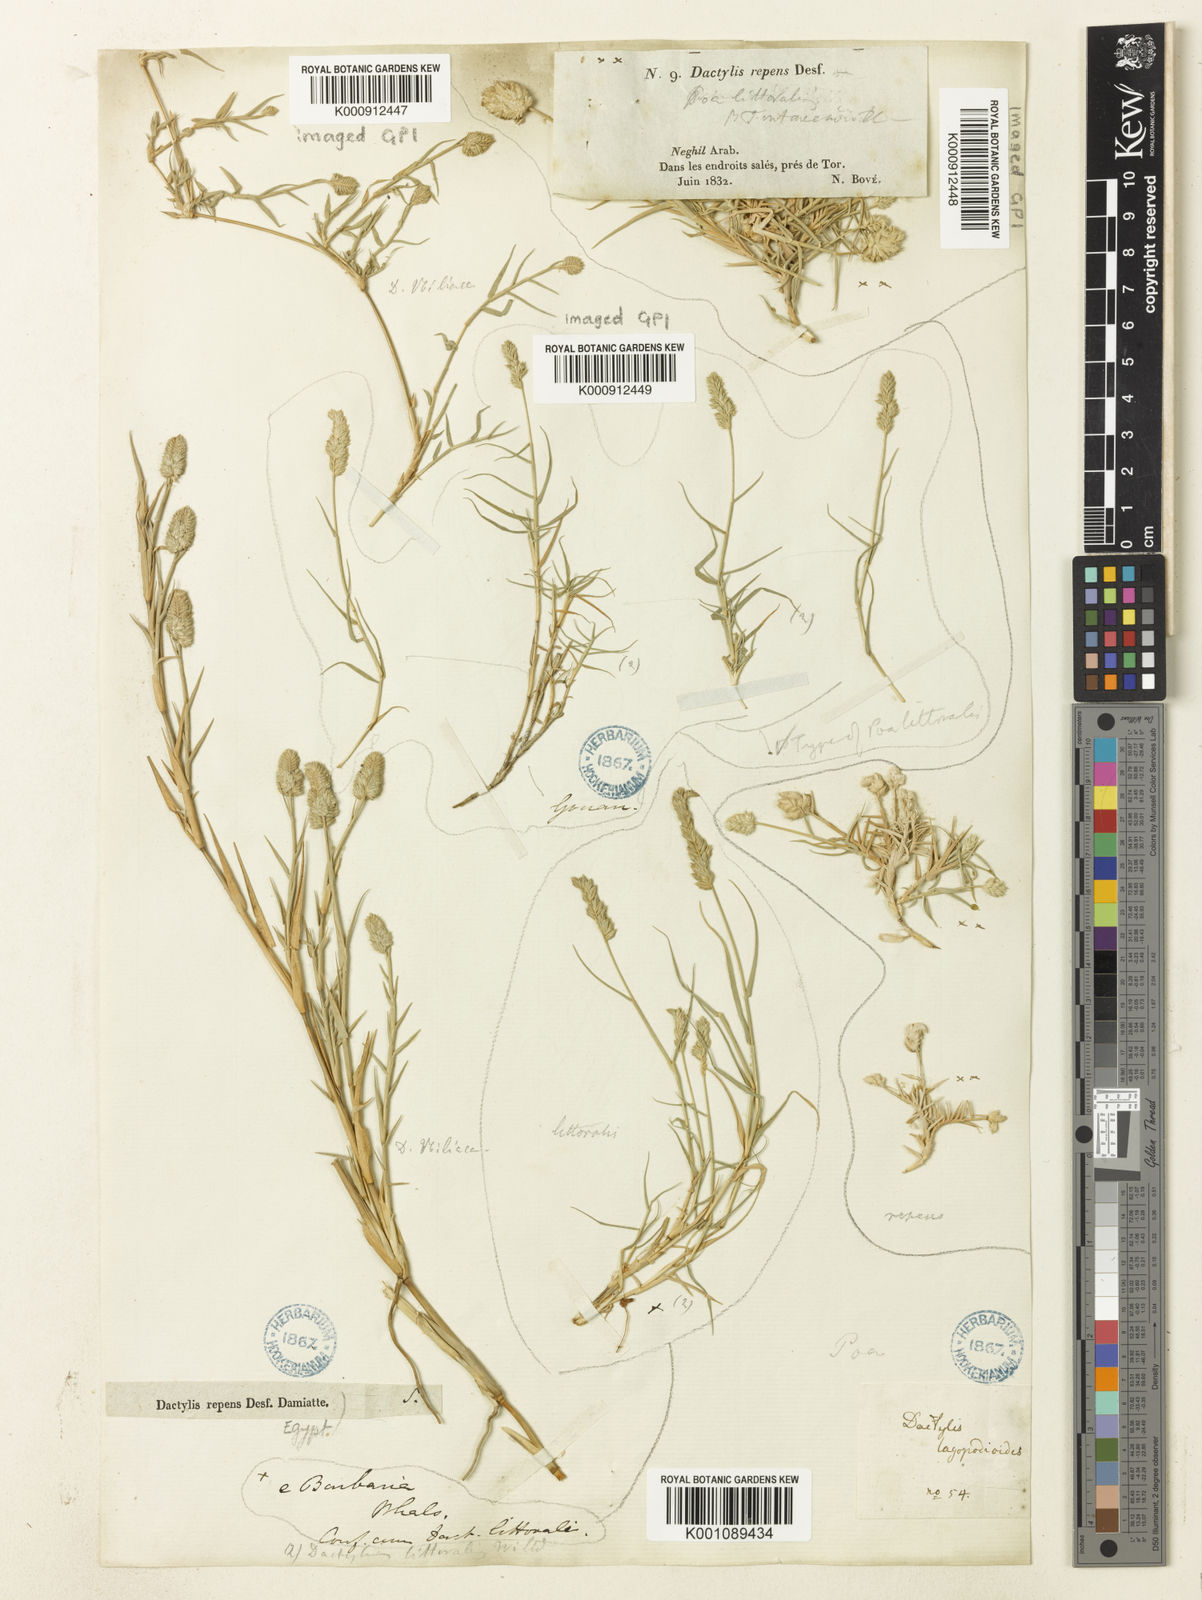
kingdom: Plantae
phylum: Tracheophyta
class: Liliopsida
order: Poales
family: Poaceae
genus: Aeluropus
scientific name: Aeluropus littoralis
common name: Indian walnut
